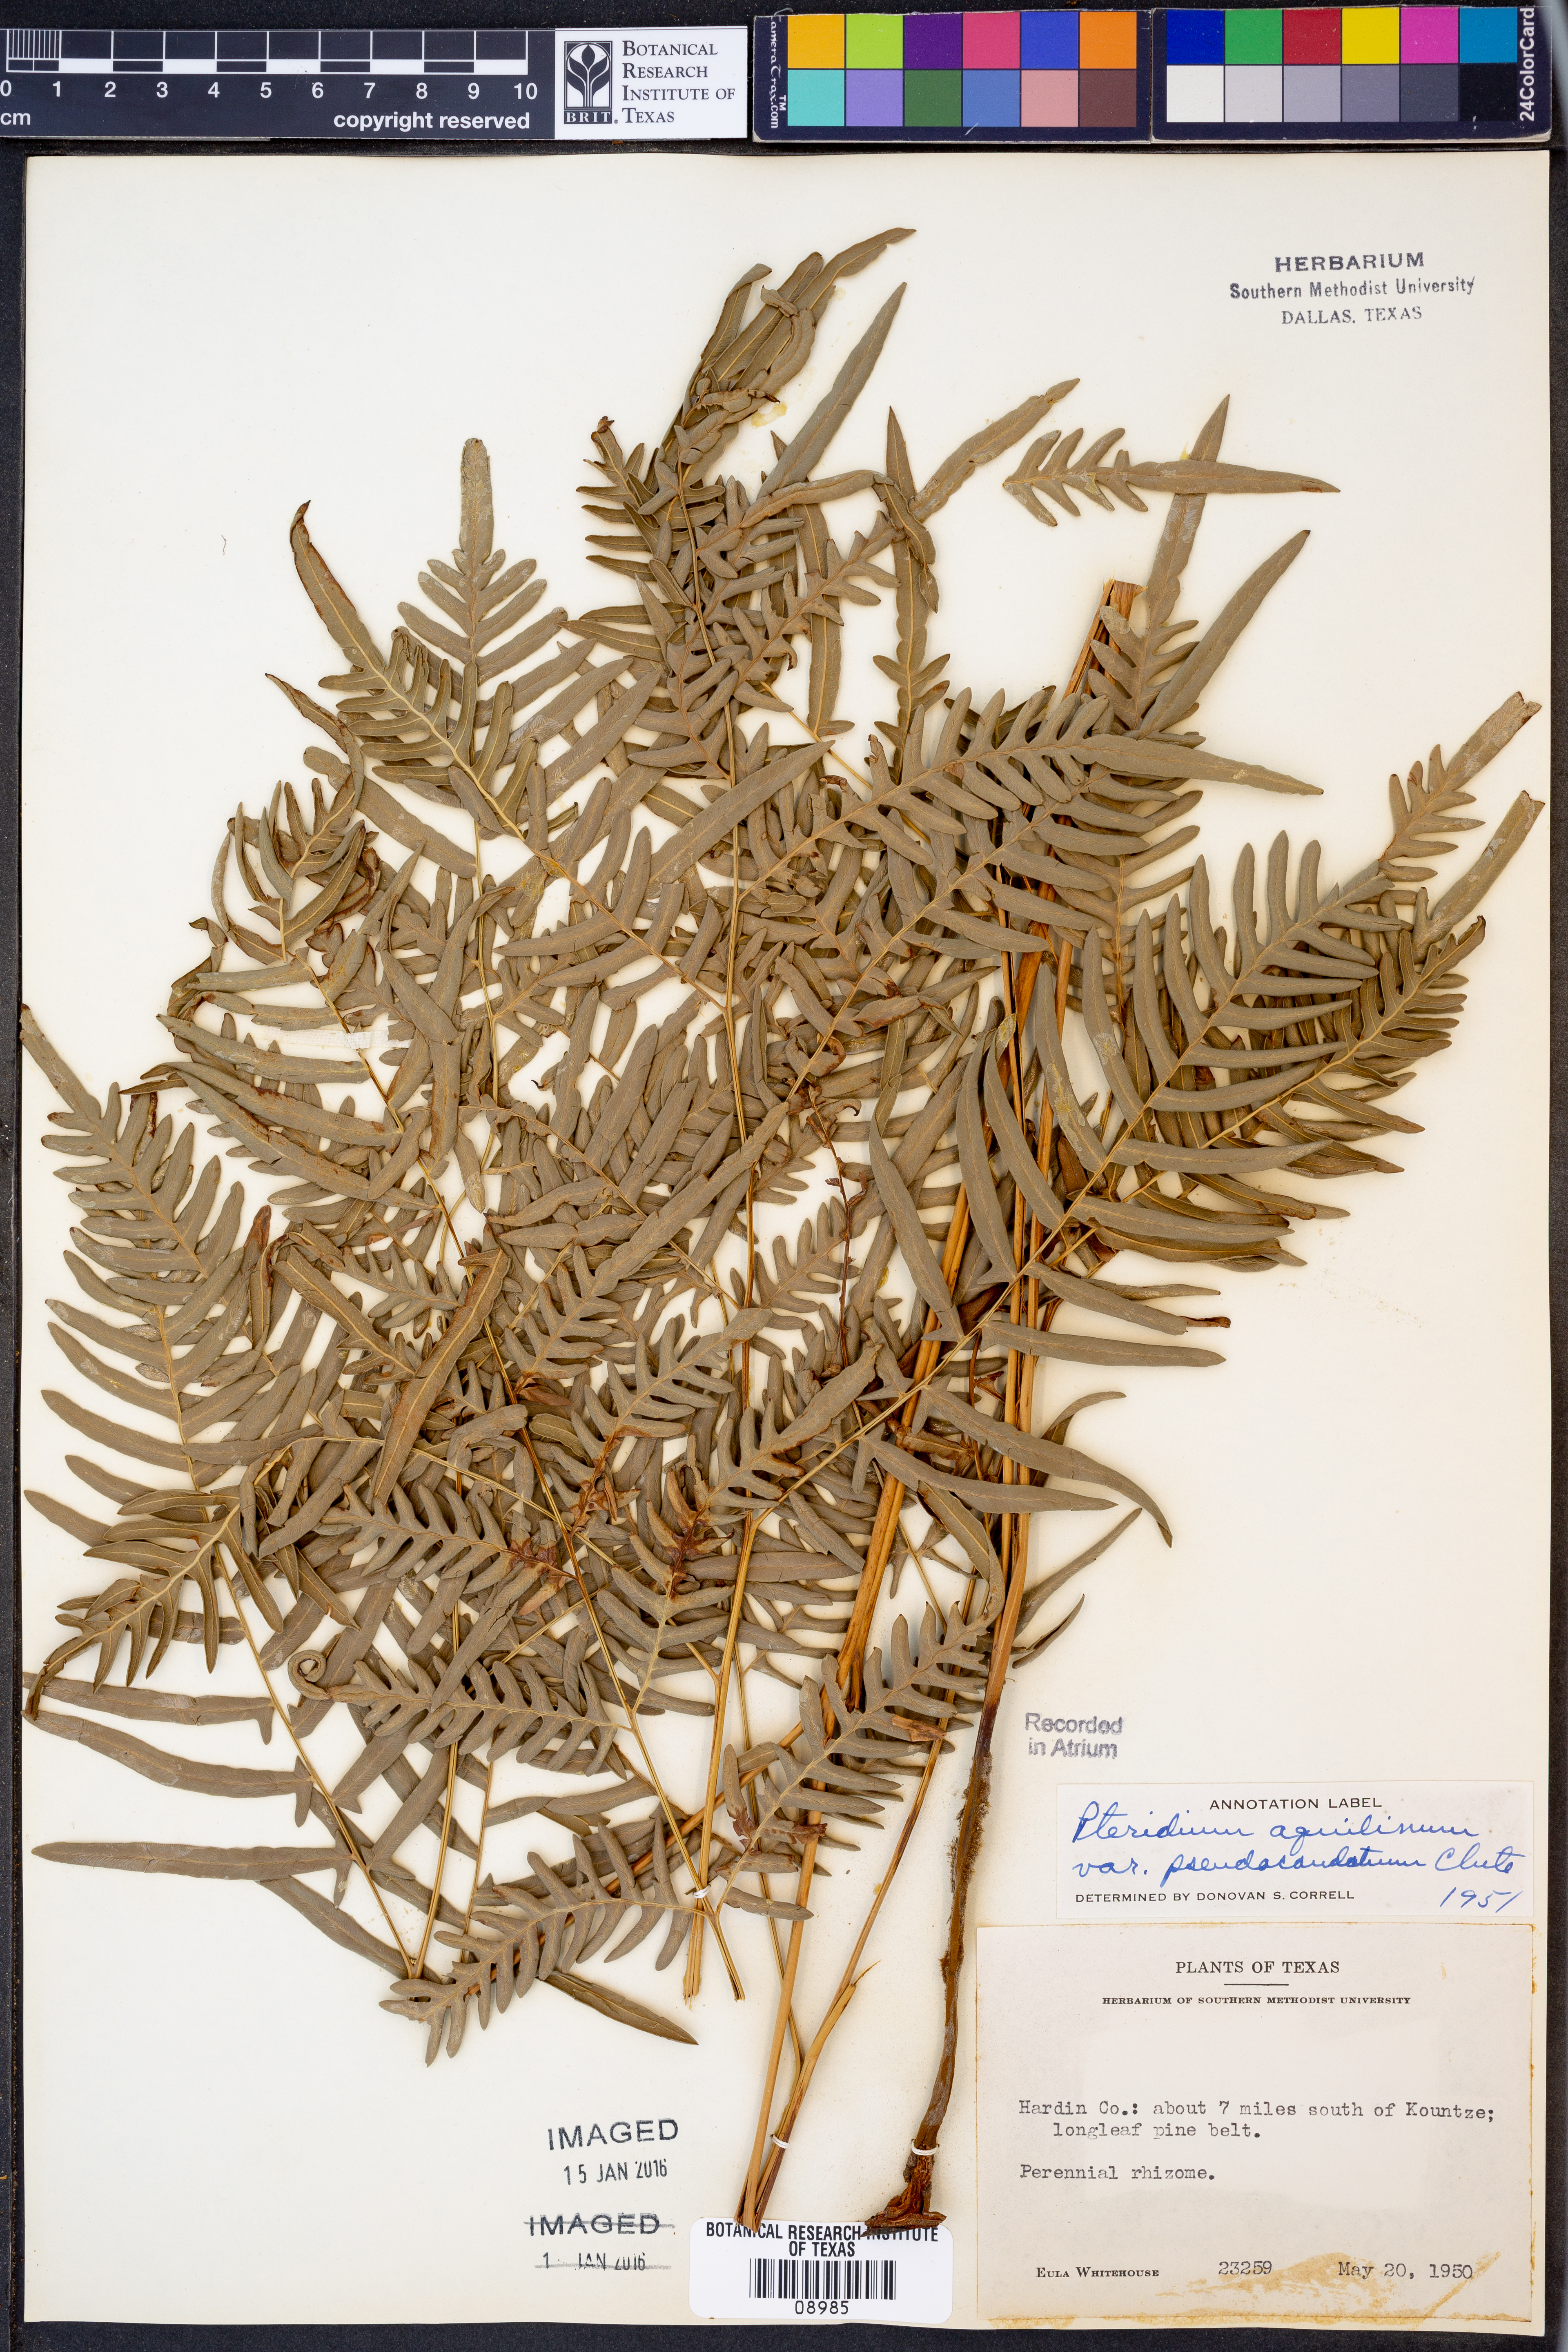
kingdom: Plantae
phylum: Tracheophyta
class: Polypodiopsida
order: Polypodiales
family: Dennstaedtiaceae
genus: Pteridium
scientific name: Pteridium aquilinum
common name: Bracken
